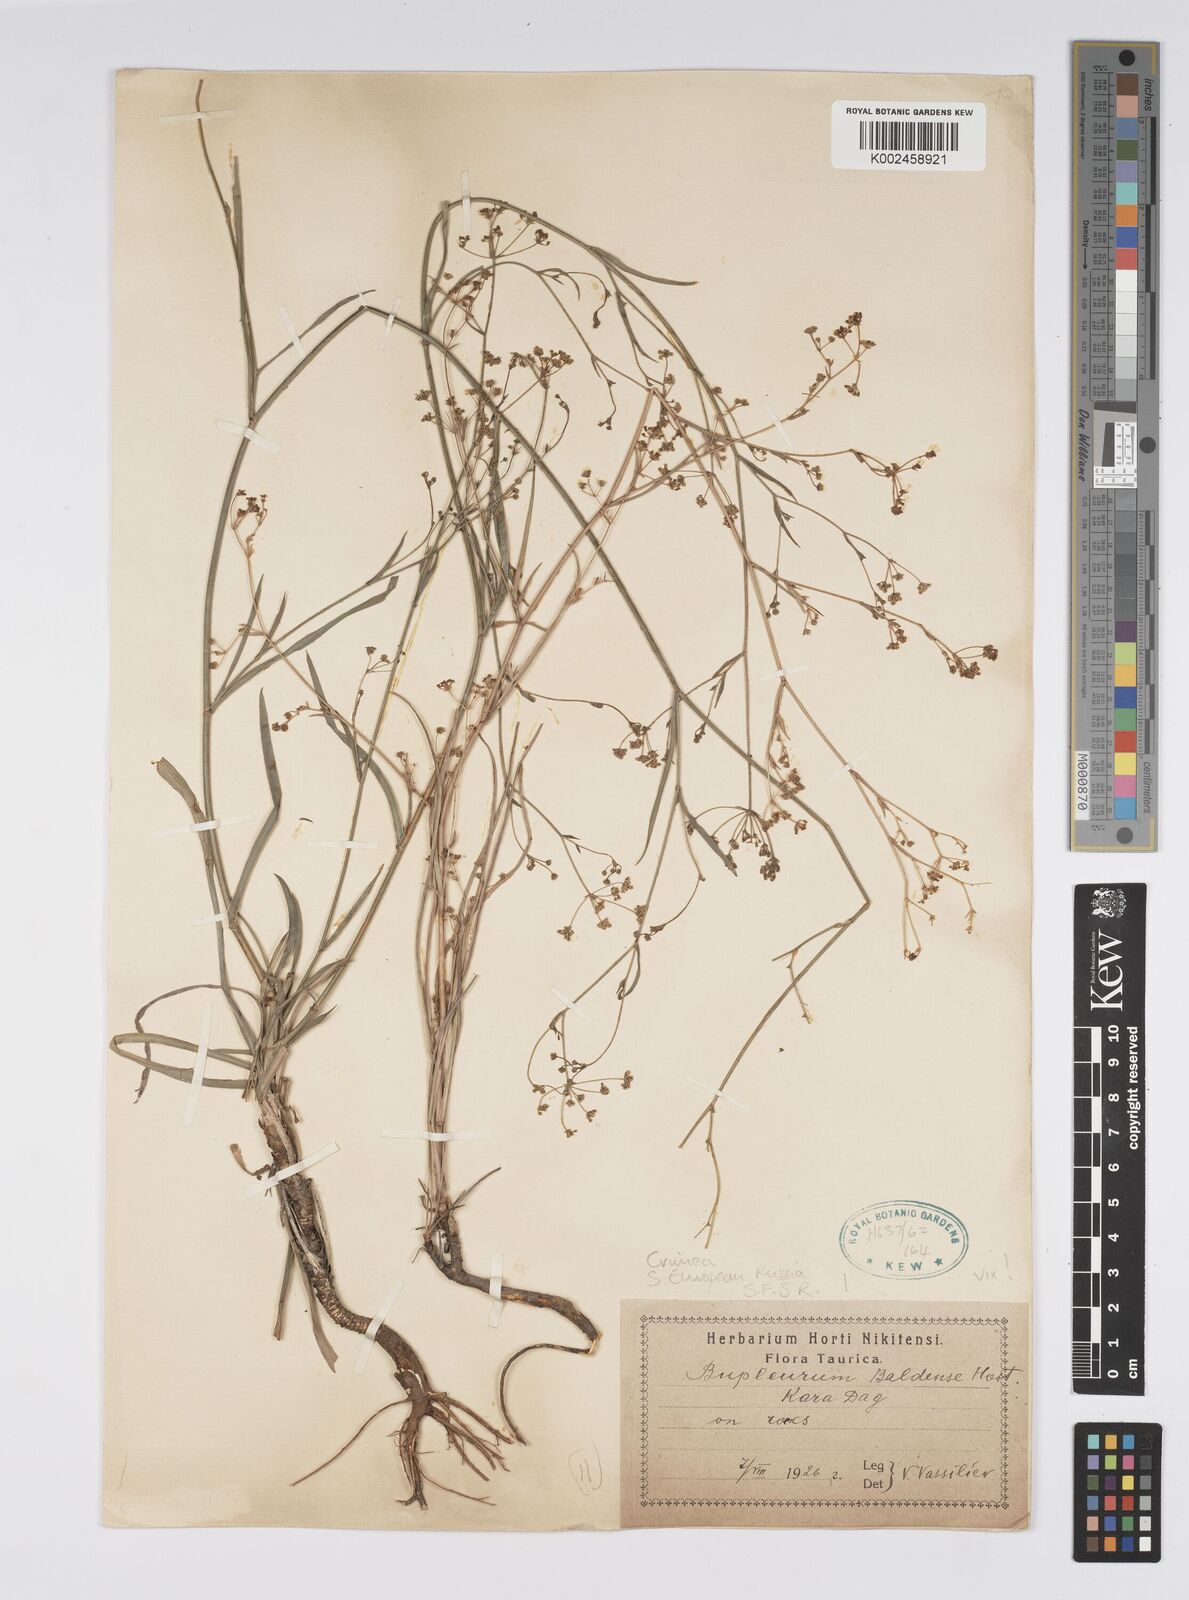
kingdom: Plantae
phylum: Tracheophyta
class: Magnoliopsida
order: Apiales
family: Apiaceae
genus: Bupleurum
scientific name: Bupleurum falcatum
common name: Sickle-leaved hare's-ear
